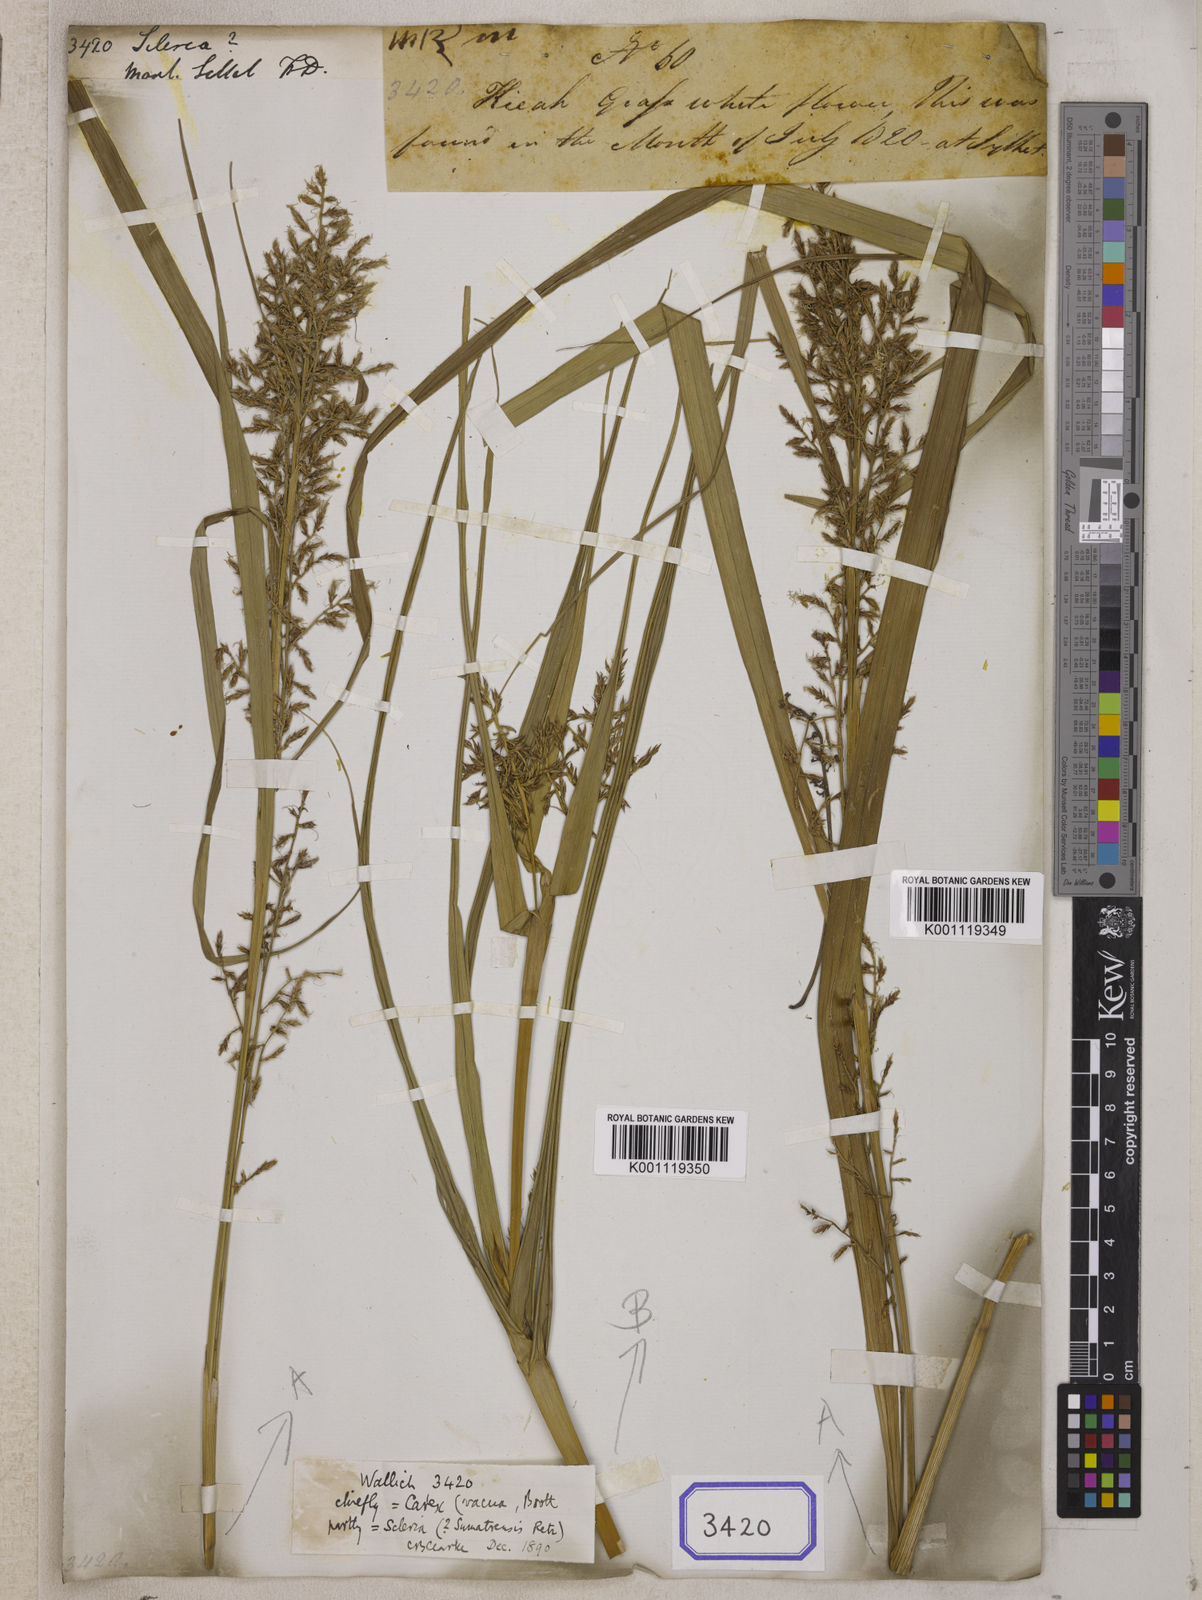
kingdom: Plantae
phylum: Tracheophyta
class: Liliopsida
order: Poales
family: Cyperaceae
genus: Scleria
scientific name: Scleria
